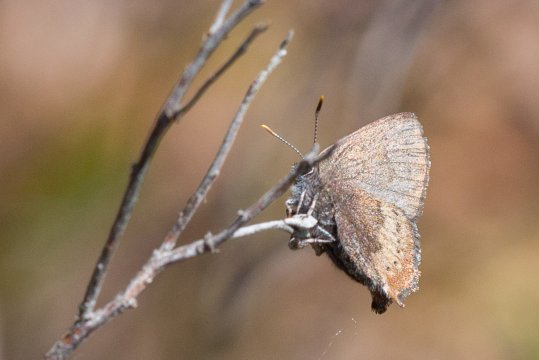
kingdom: Animalia
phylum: Arthropoda
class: Insecta
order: Lepidoptera
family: Lycaenidae
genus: Incisalia
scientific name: Incisalia irioides
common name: Brown Elfin
